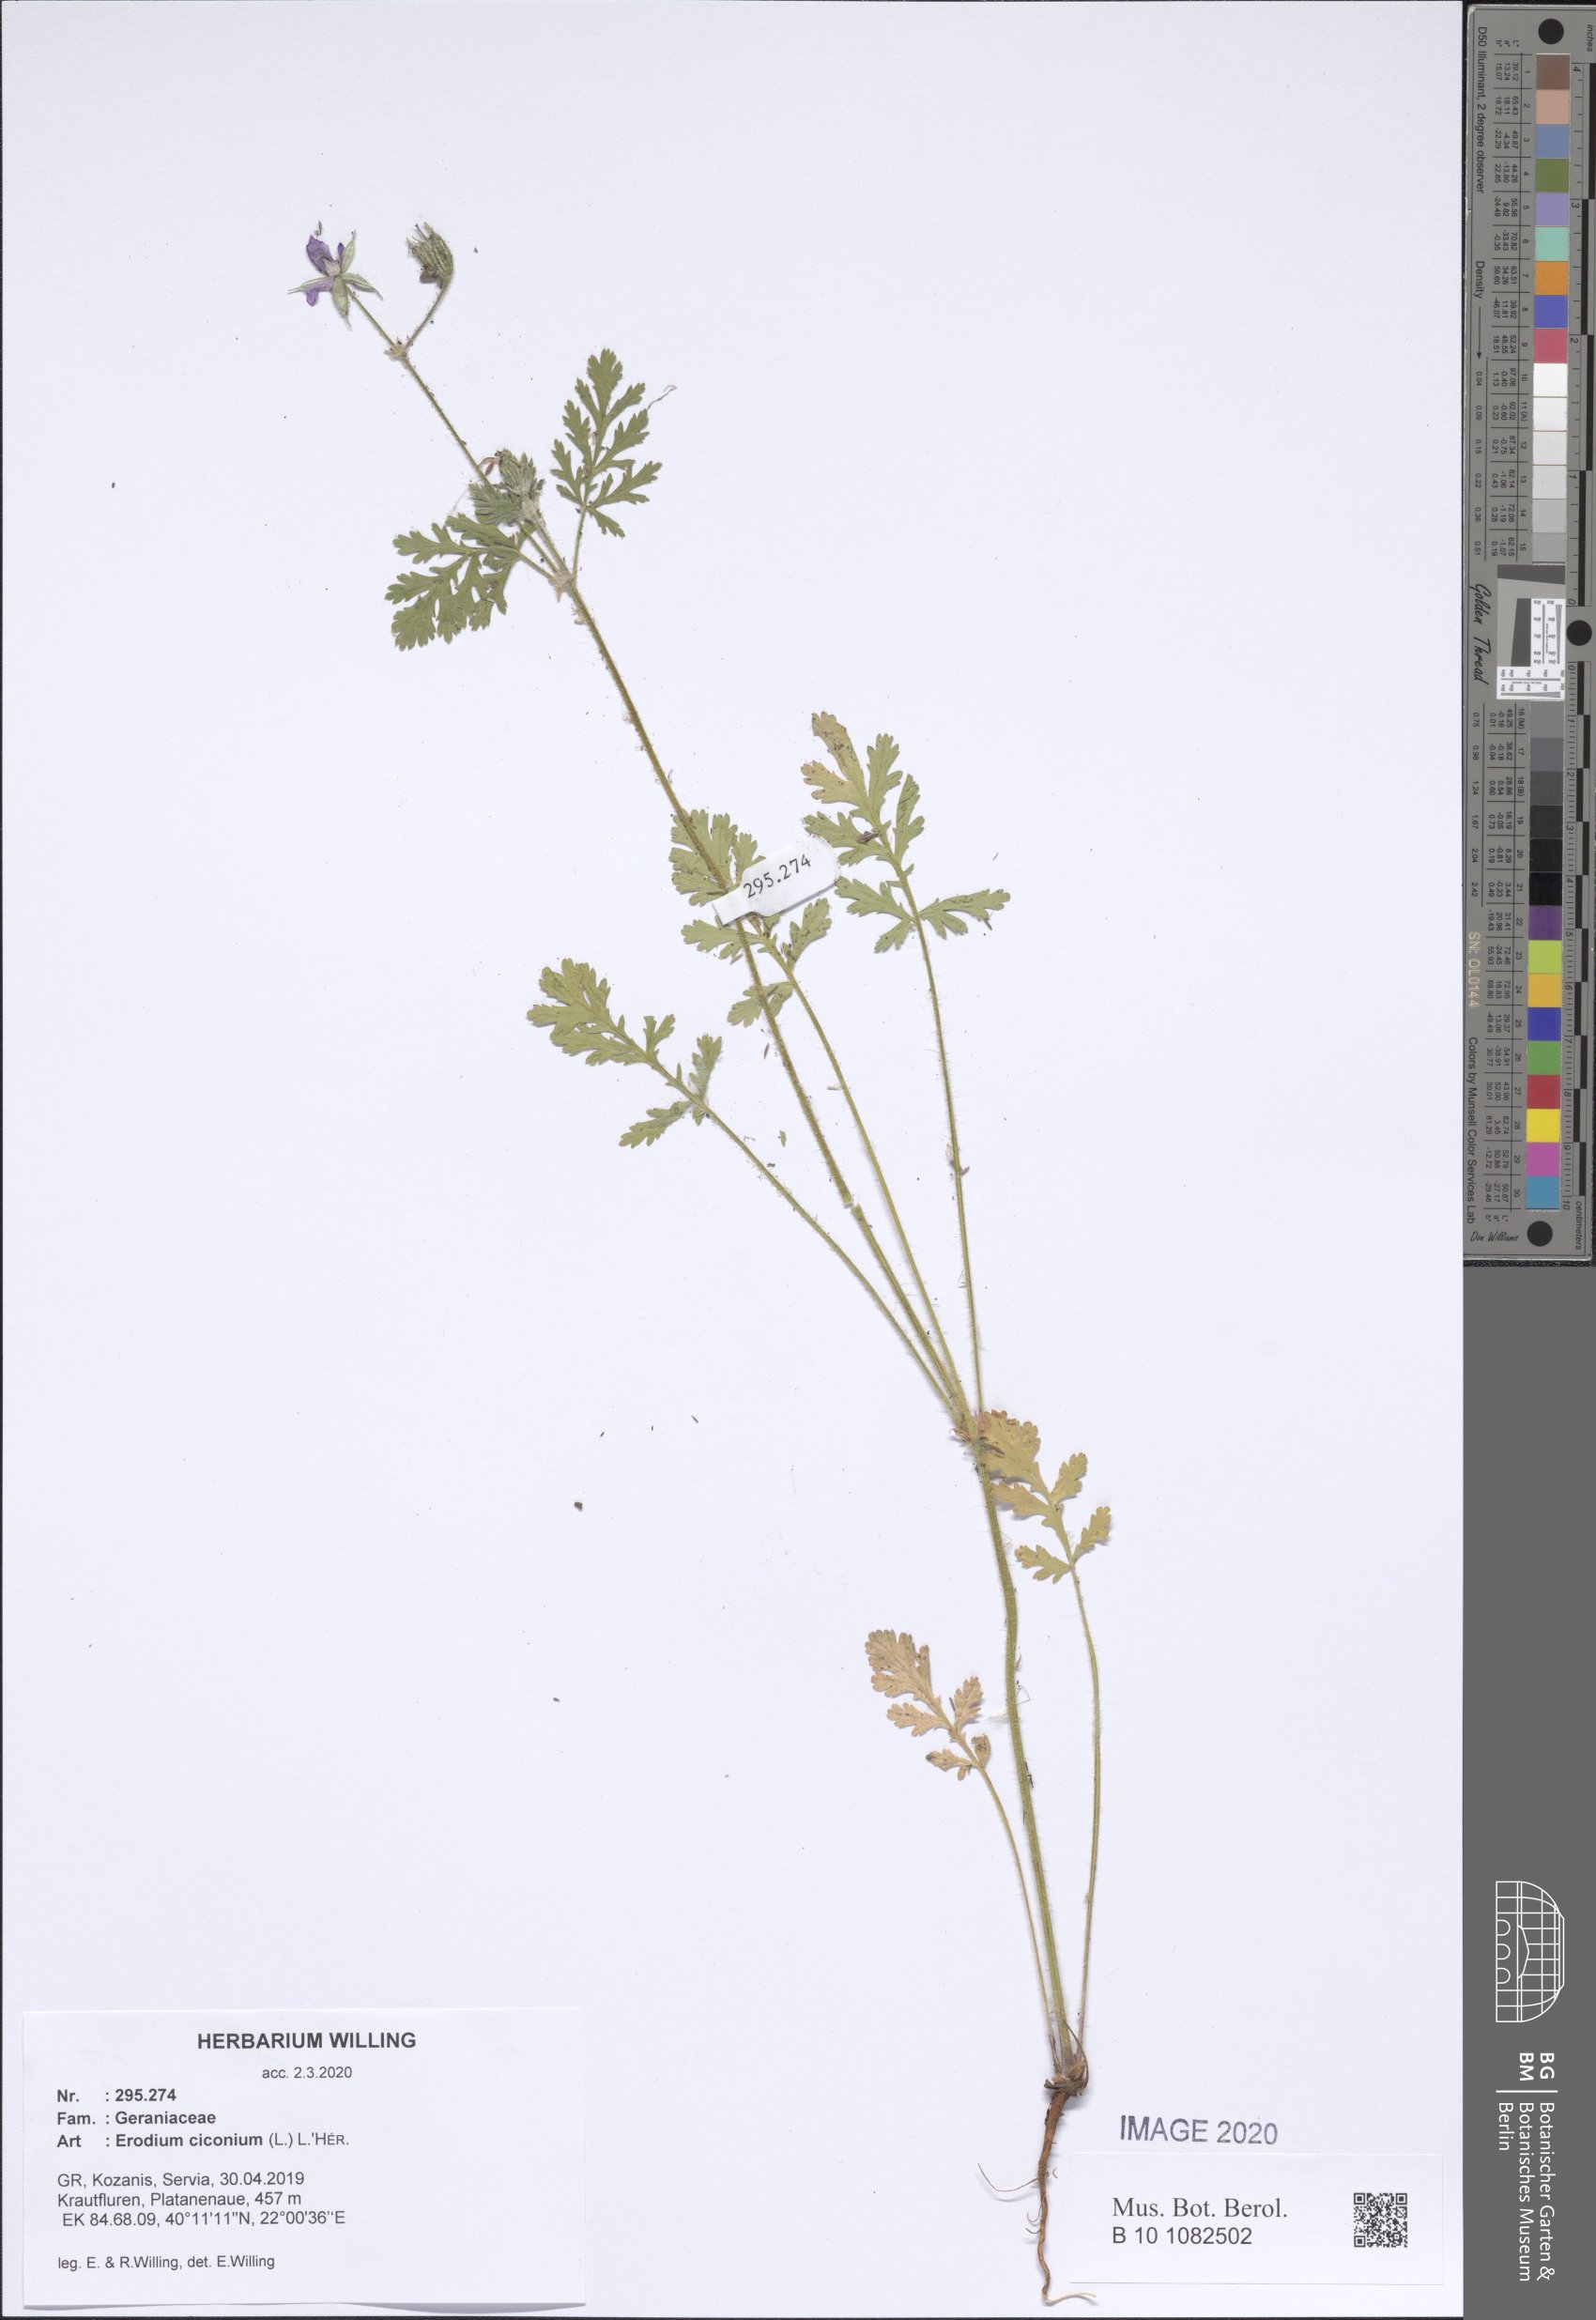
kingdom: Plantae
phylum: Tracheophyta
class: Magnoliopsida
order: Geraniales
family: Geraniaceae
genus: Erodium
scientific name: Erodium ciconium
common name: Common stork's bill
